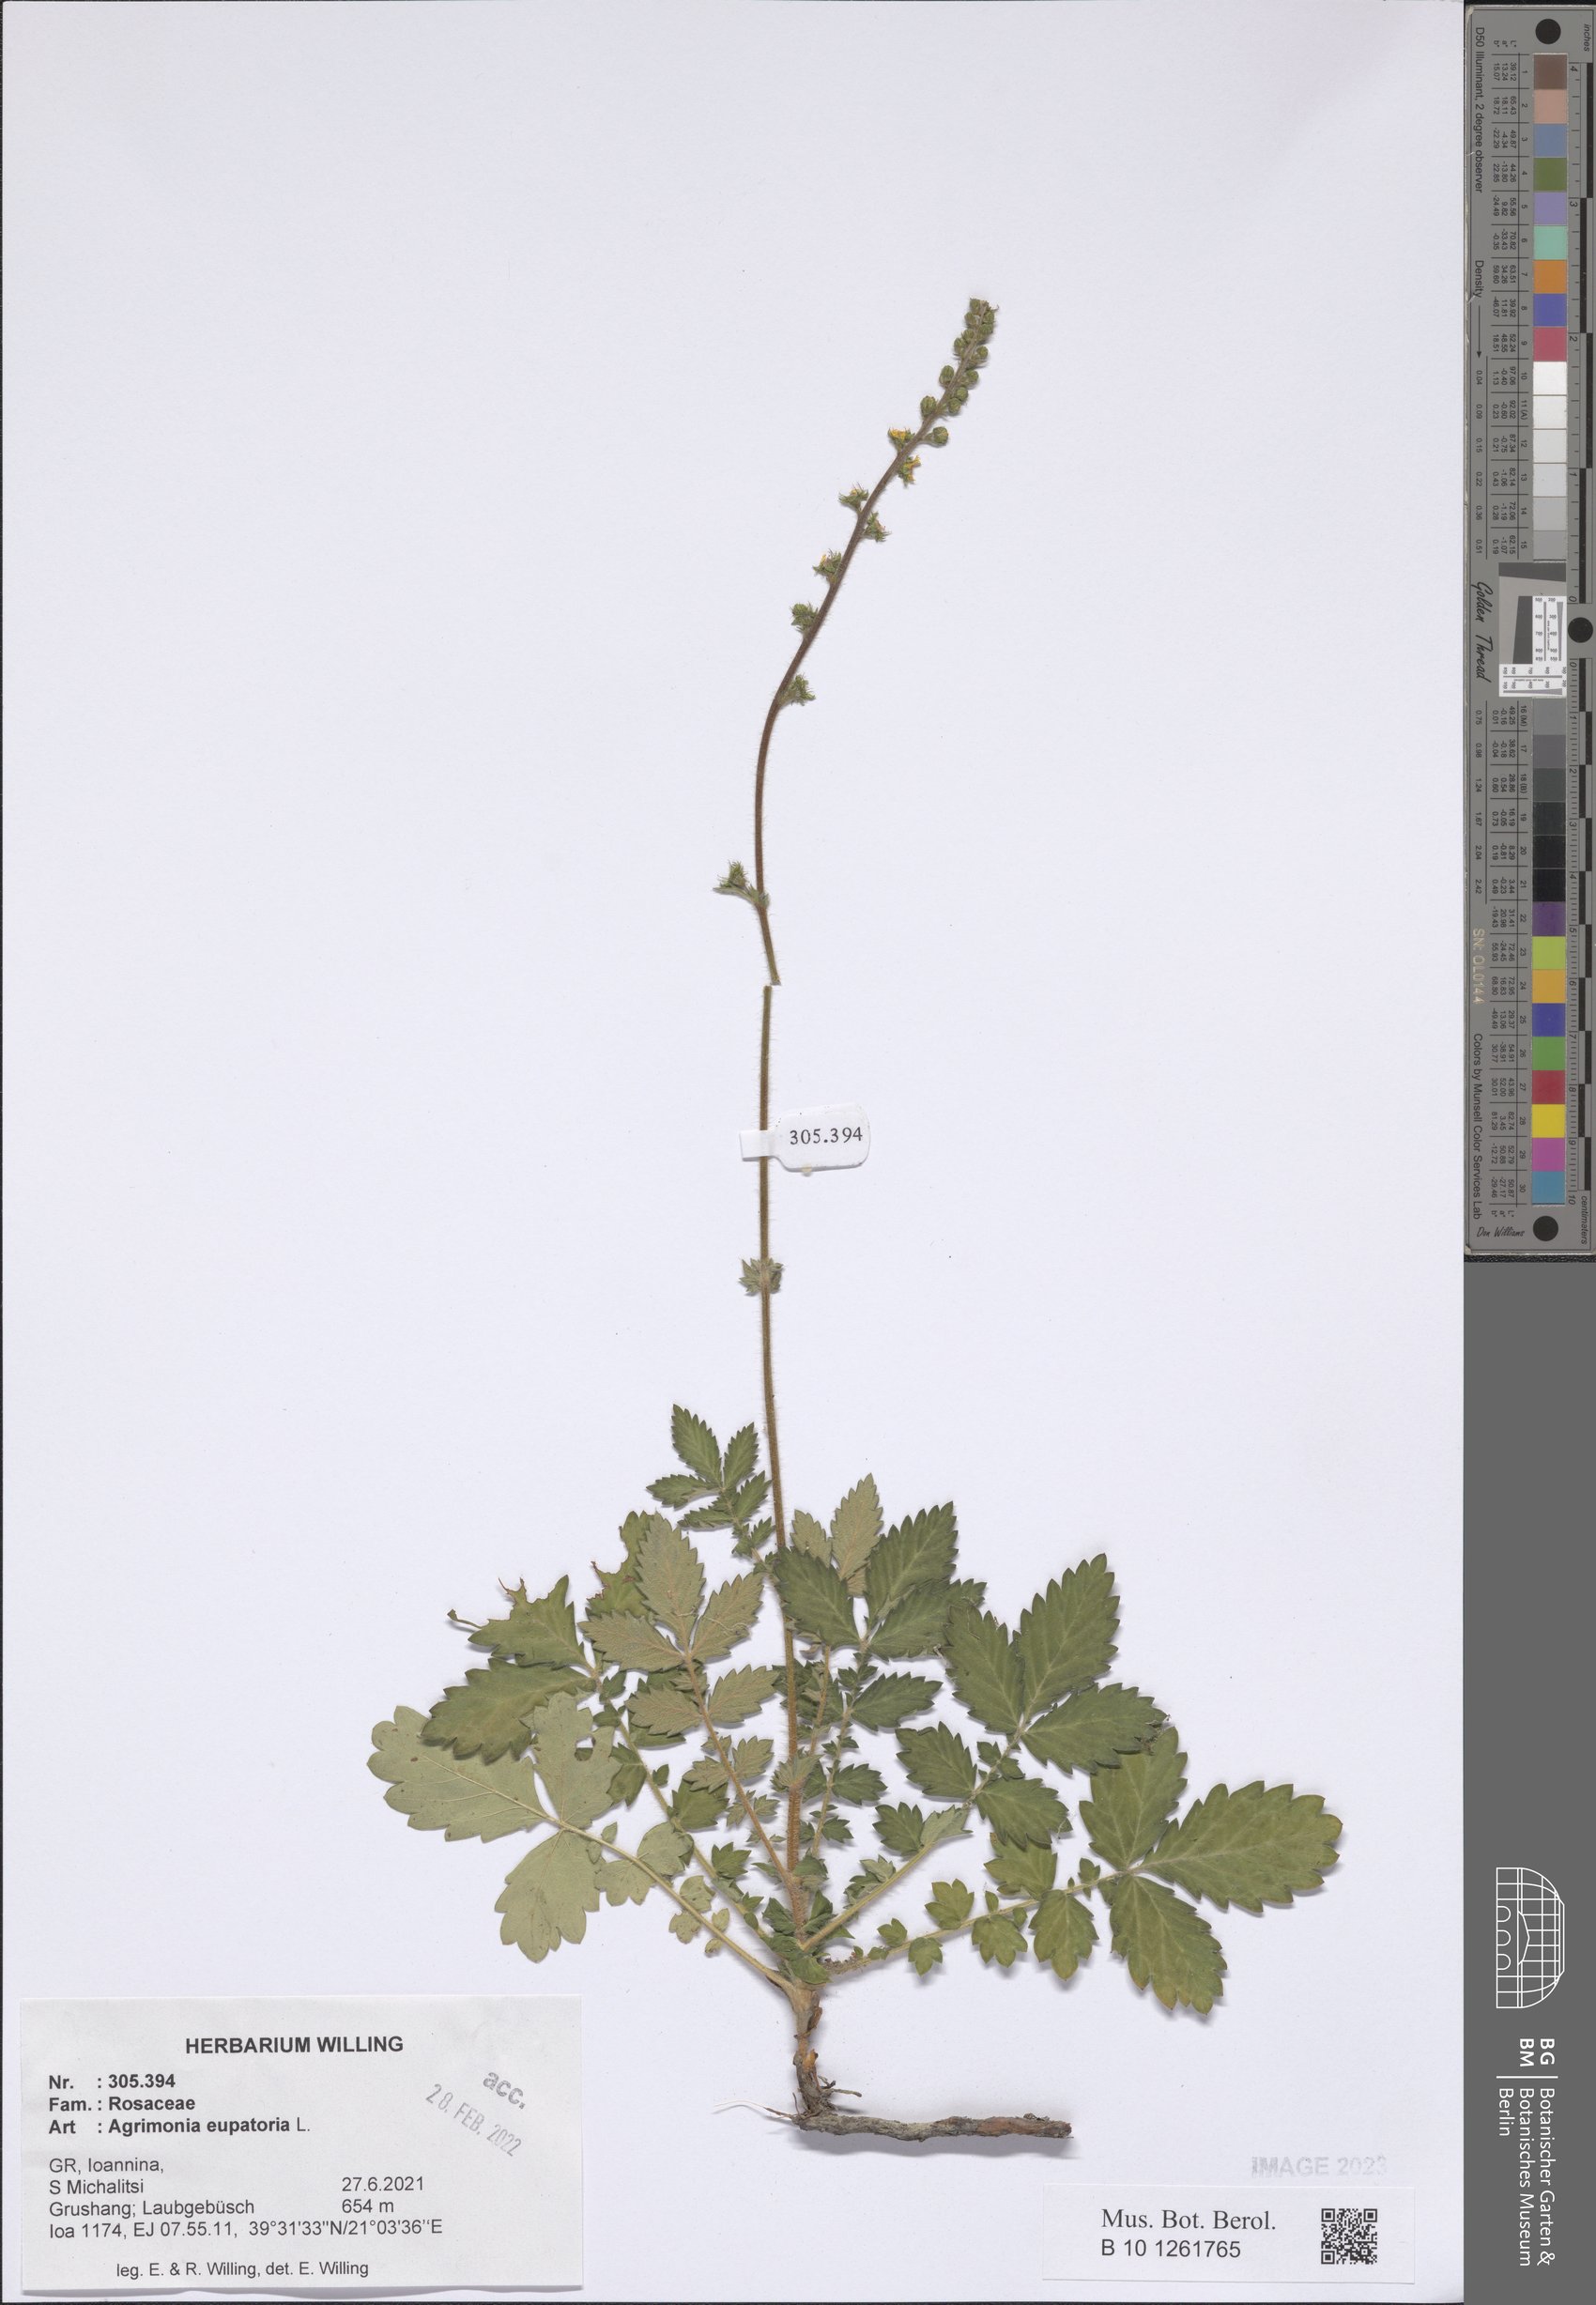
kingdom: Plantae
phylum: Tracheophyta
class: Magnoliopsida
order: Rosales
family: Rosaceae
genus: Agrimonia
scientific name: Agrimonia eupatoria
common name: Agrimony
